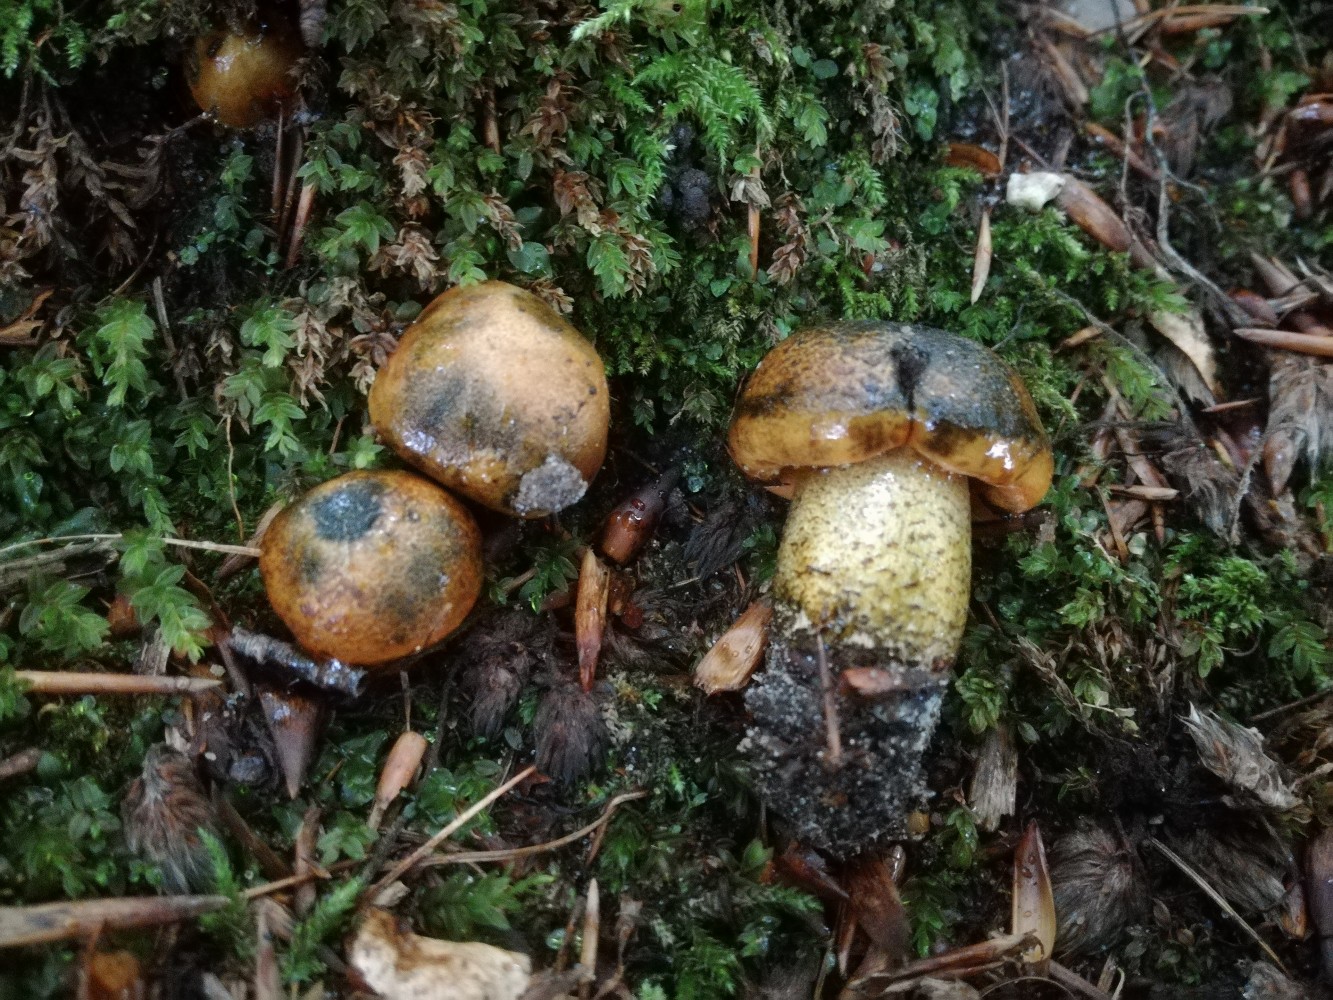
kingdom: Fungi
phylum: Basidiomycota
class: Agaricomycetes
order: Agaricales
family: Tricholomataceae
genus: Tricholoma
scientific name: Tricholoma aurantium
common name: orangegul ridderhat
